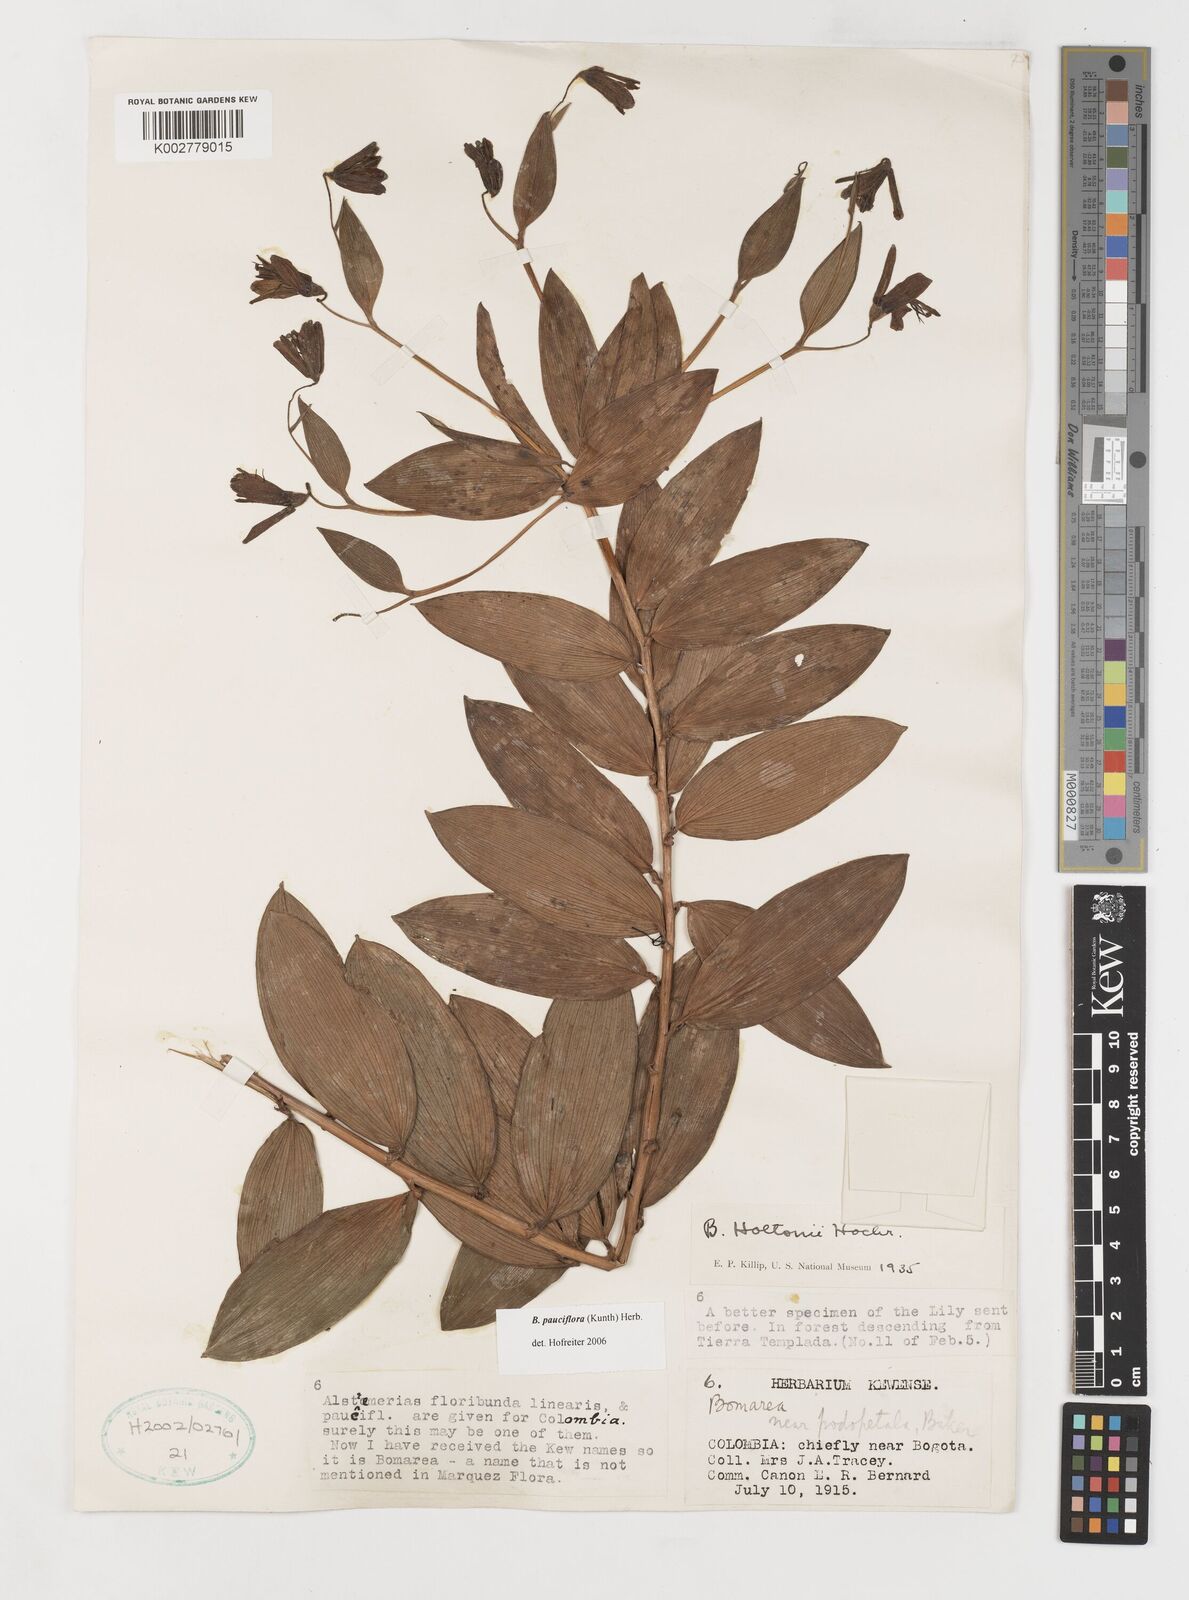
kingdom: Plantae
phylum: Tracheophyta
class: Liliopsida
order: Liliales
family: Alstroemeriaceae
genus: Bomarea
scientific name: Bomarea pauciflora
